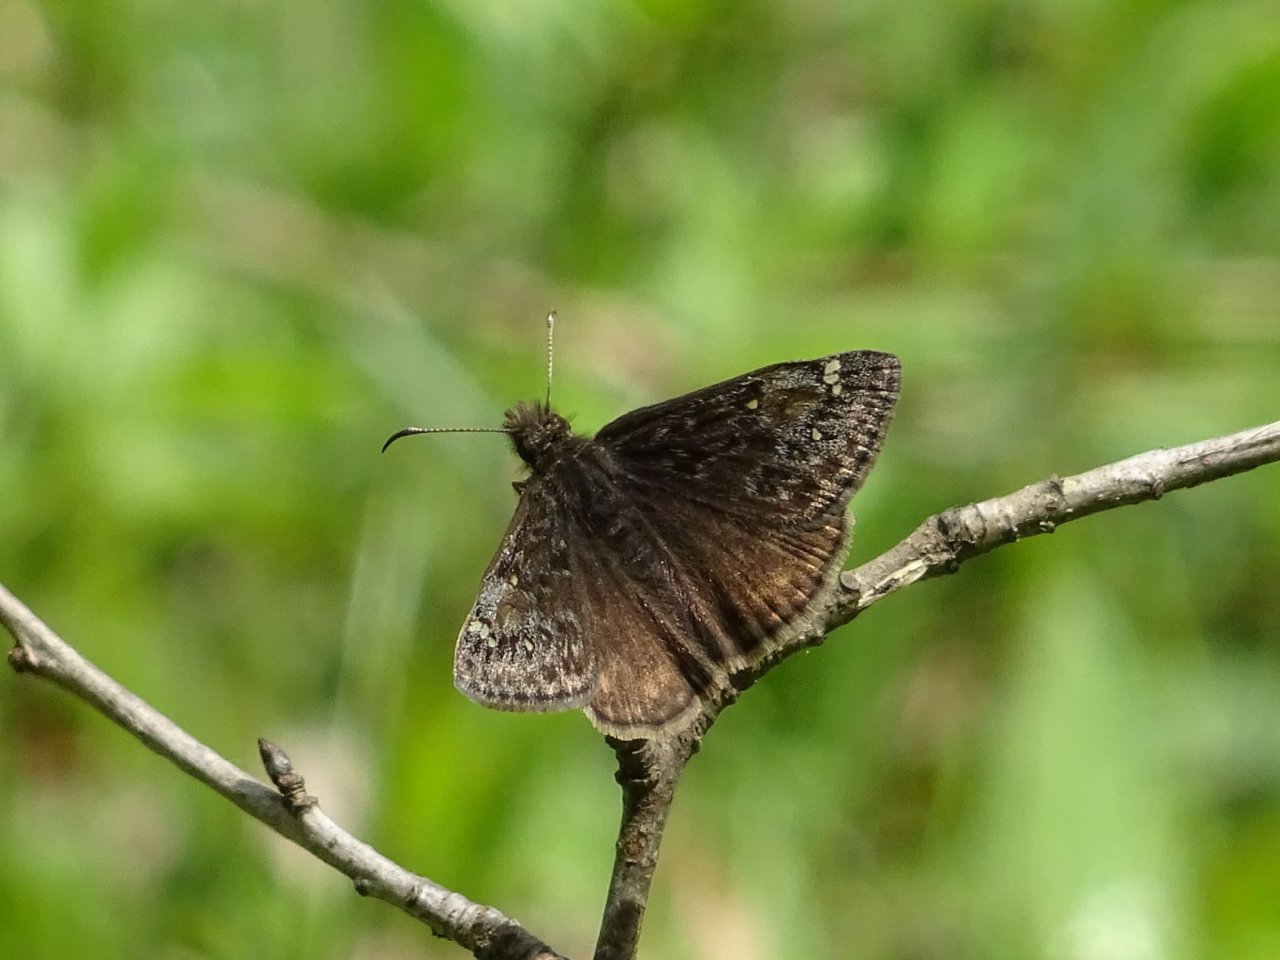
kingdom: Animalia
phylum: Arthropoda
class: Insecta
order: Lepidoptera
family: Hesperiidae
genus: Gesta
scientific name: Gesta
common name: Juvenal's Duskywing
